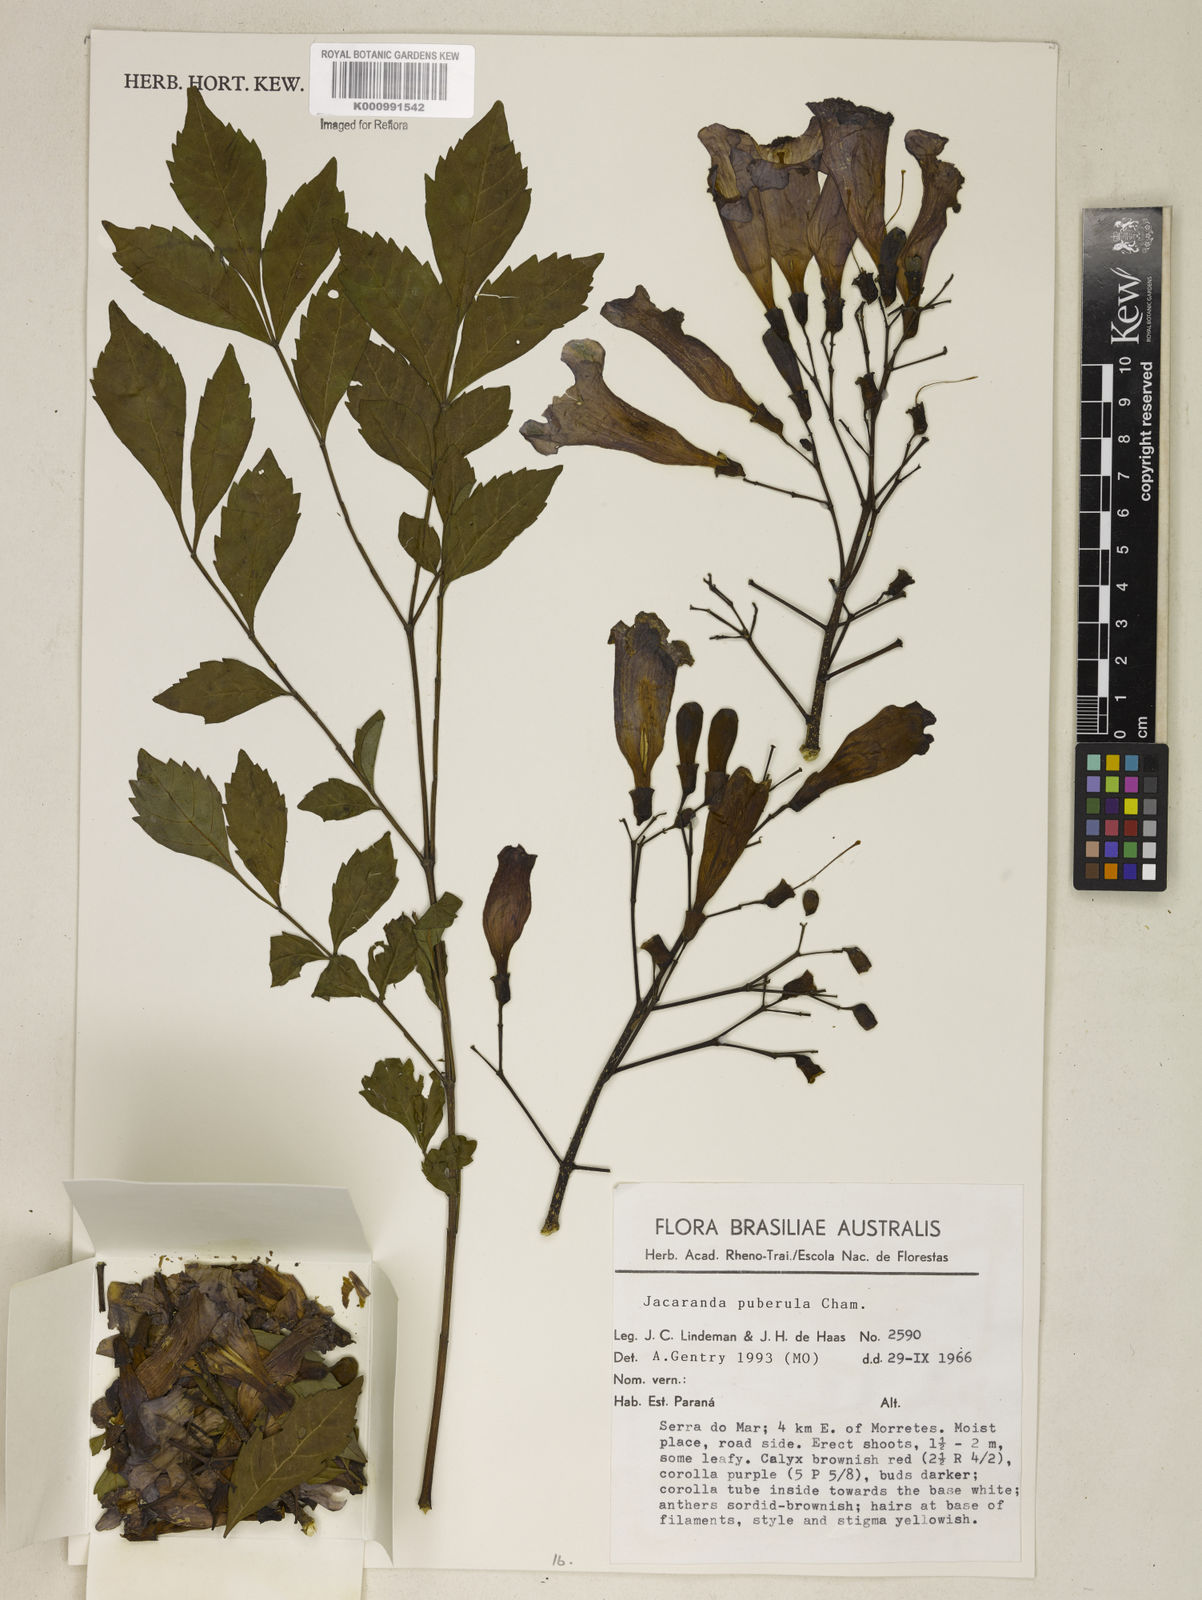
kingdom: Plantae
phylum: Tracheophyta
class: Magnoliopsida
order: Lamiales
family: Bignoniaceae
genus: Jacaranda
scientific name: Jacaranda puberula
